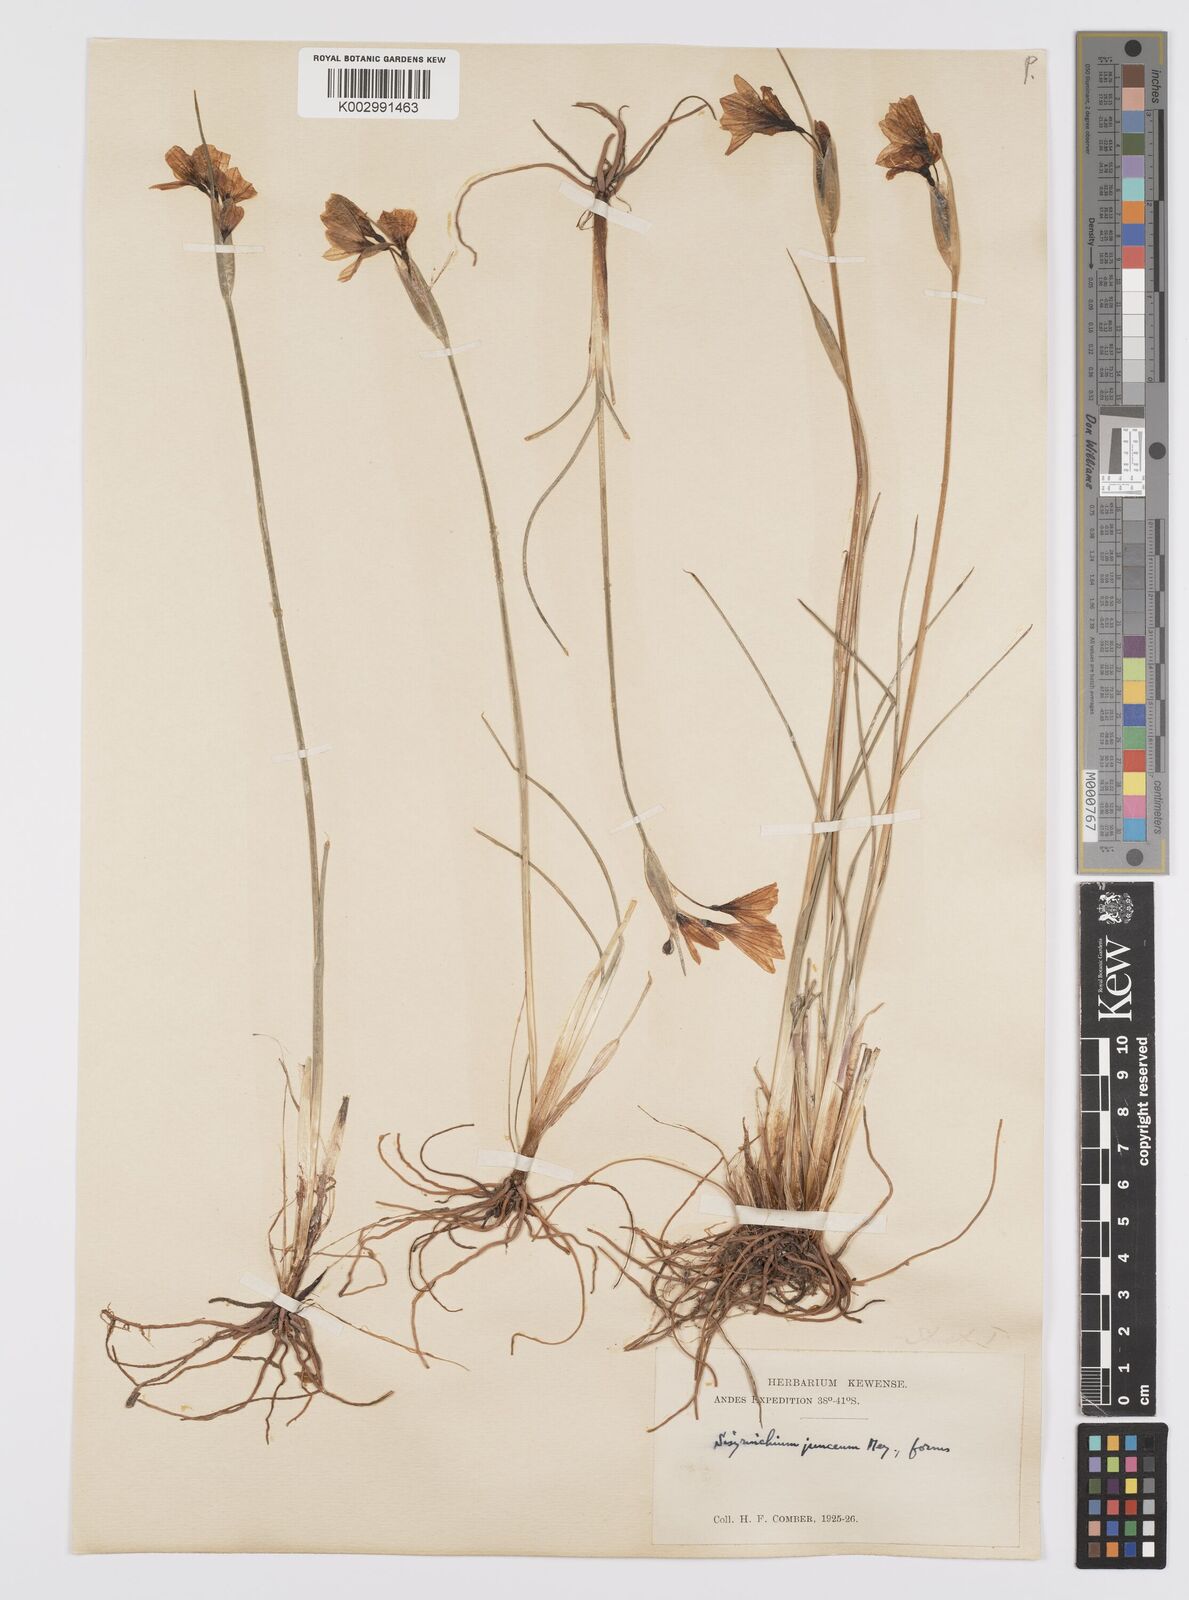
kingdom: Plantae
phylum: Tracheophyta
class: Liliopsida
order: Asparagales
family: Iridaceae
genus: Olsynium
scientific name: Olsynium junceum
